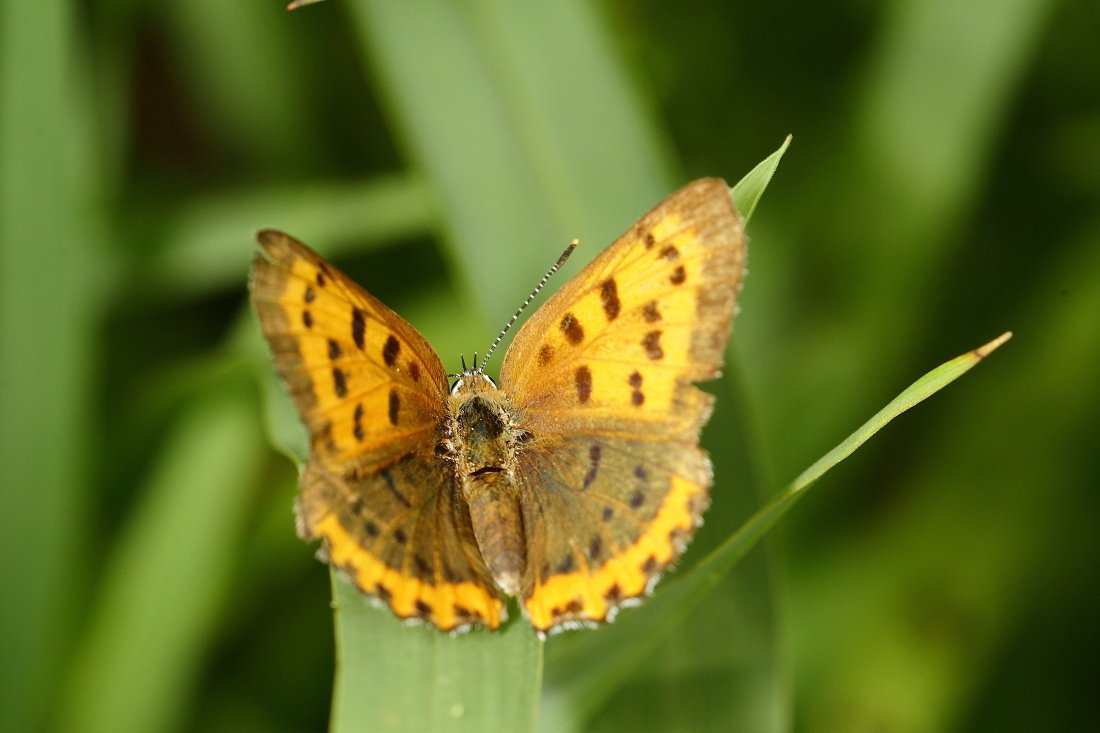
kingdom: Animalia
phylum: Arthropoda
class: Insecta
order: Lepidoptera
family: Sesiidae
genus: Sesia
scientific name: Sesia Lycaena hyllus
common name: Bronze Copper
